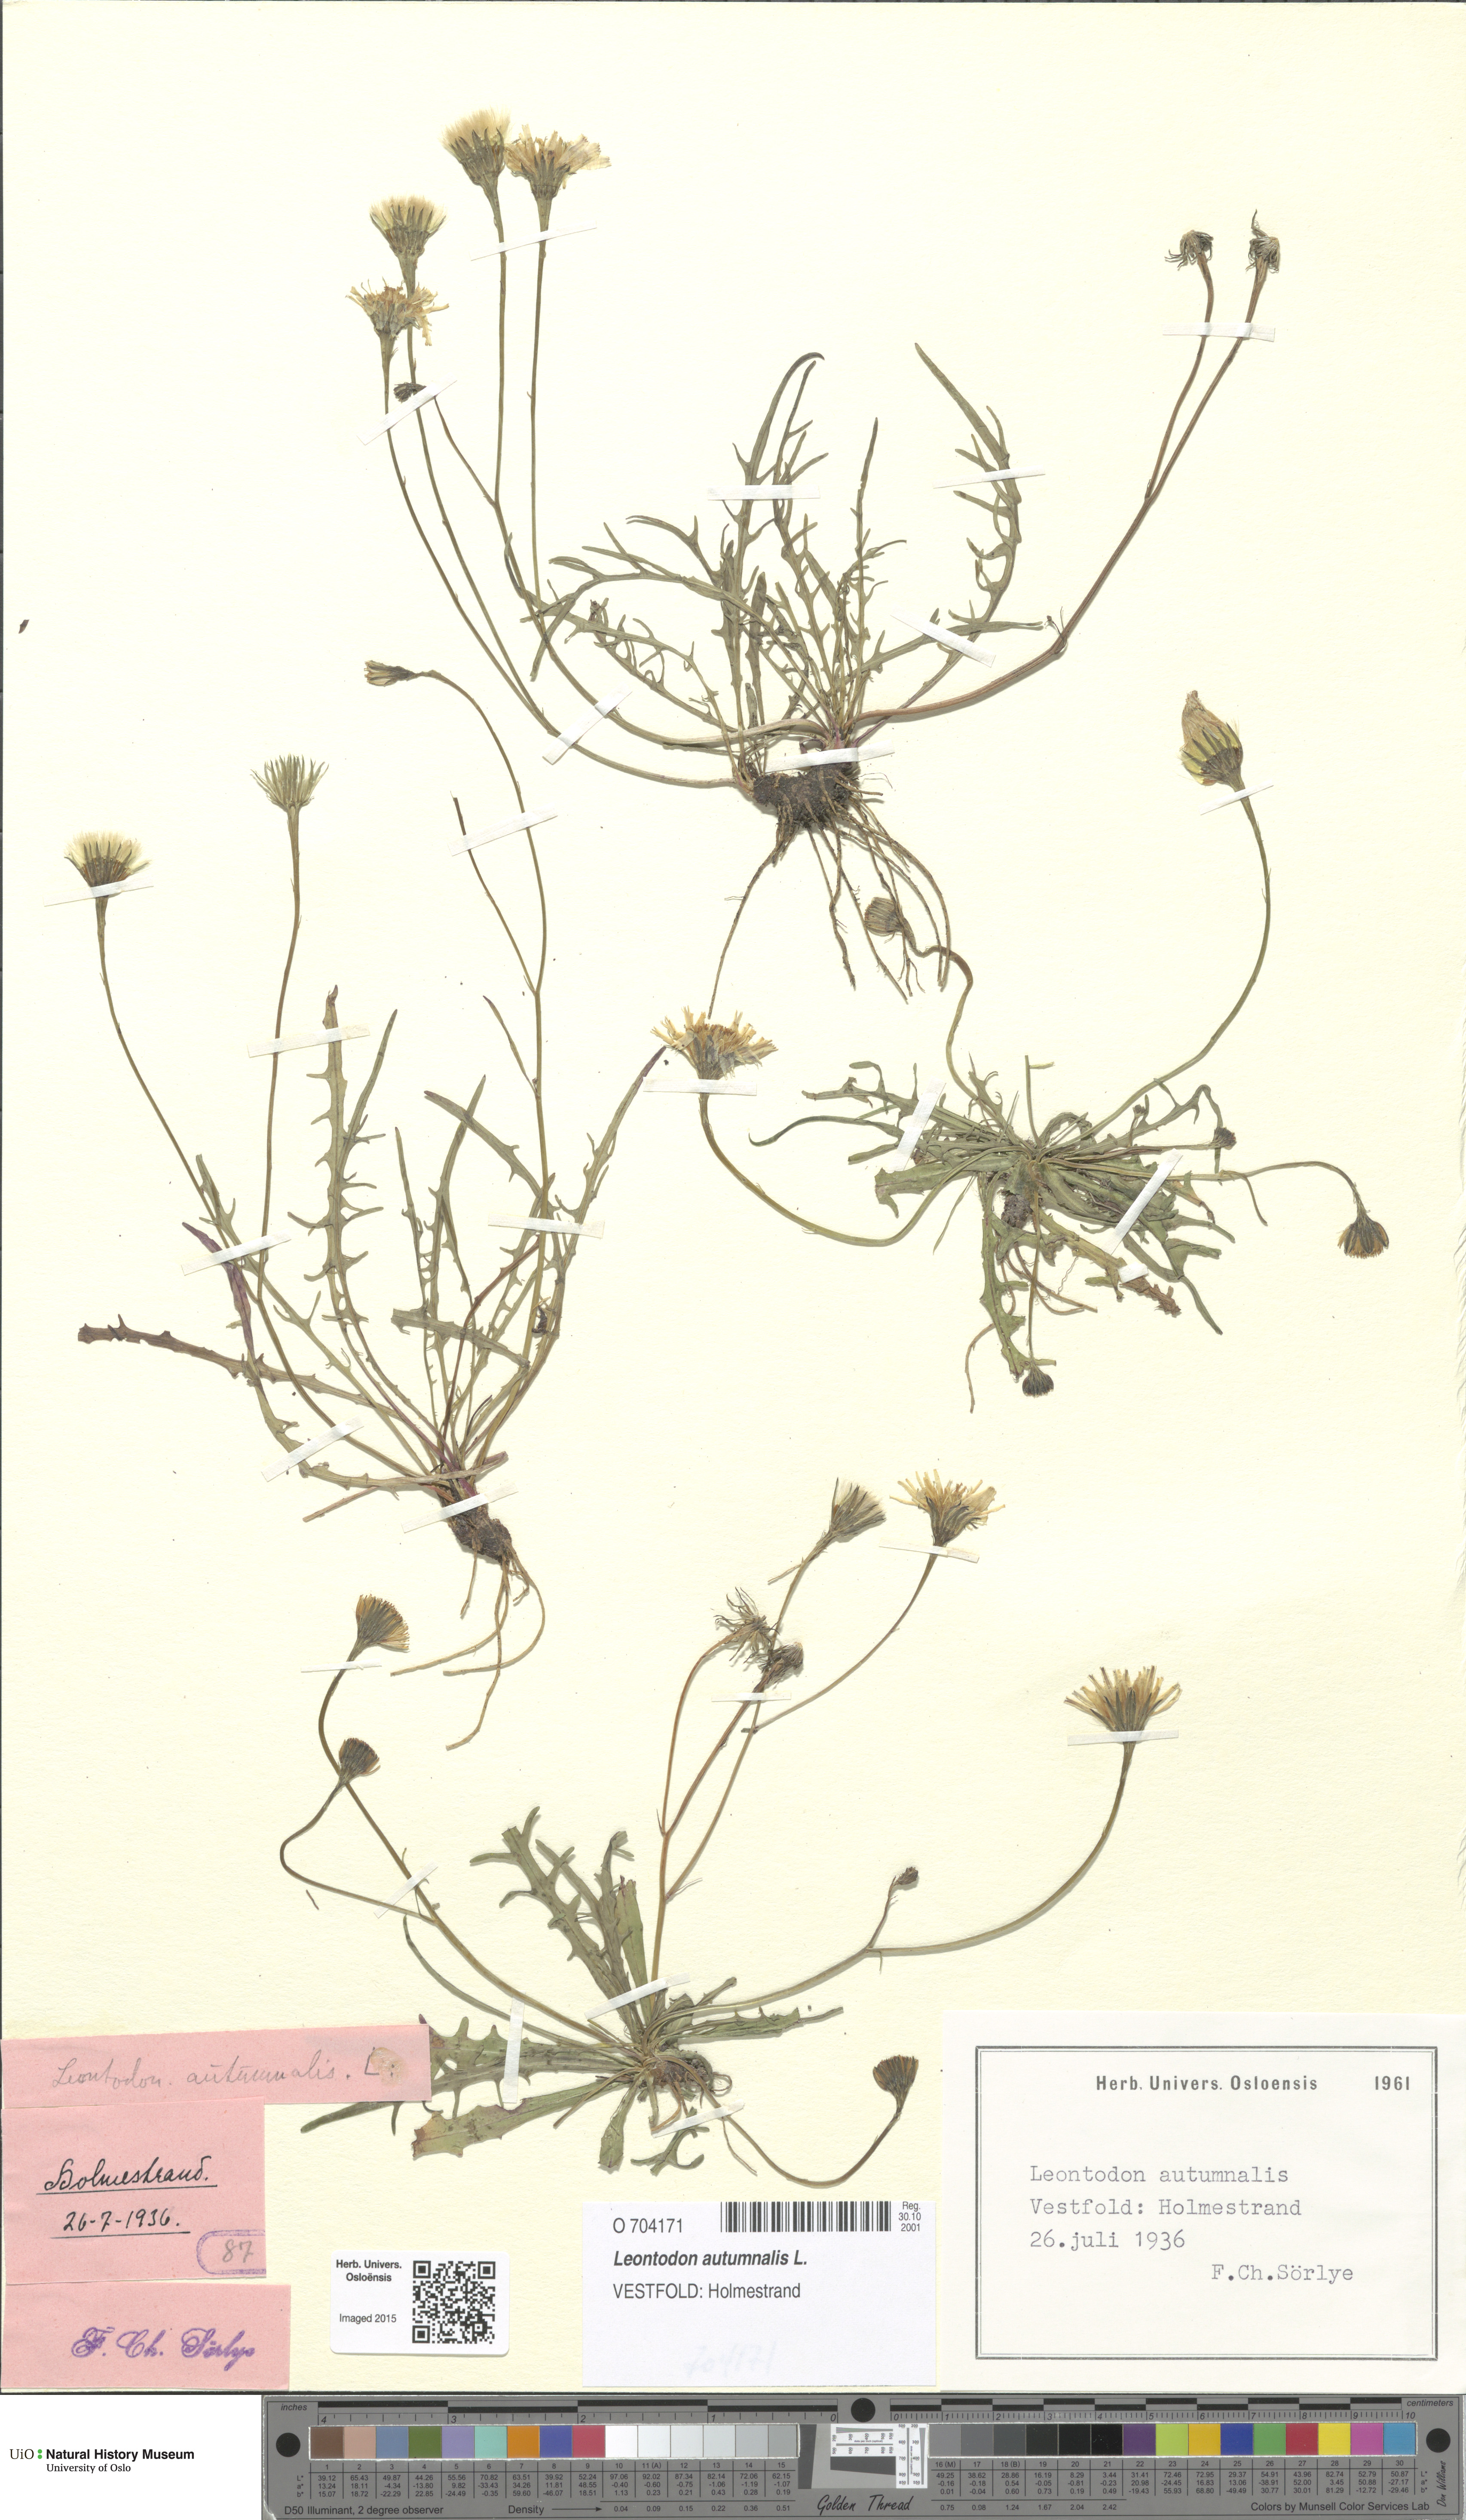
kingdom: Plantae
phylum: Tracheophyta
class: Magnoliopsida
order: Asterales
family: Asteraceae
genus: Scorzoneroides
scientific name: Scorzoneroides autumnalis
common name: Autumn hawkbit
